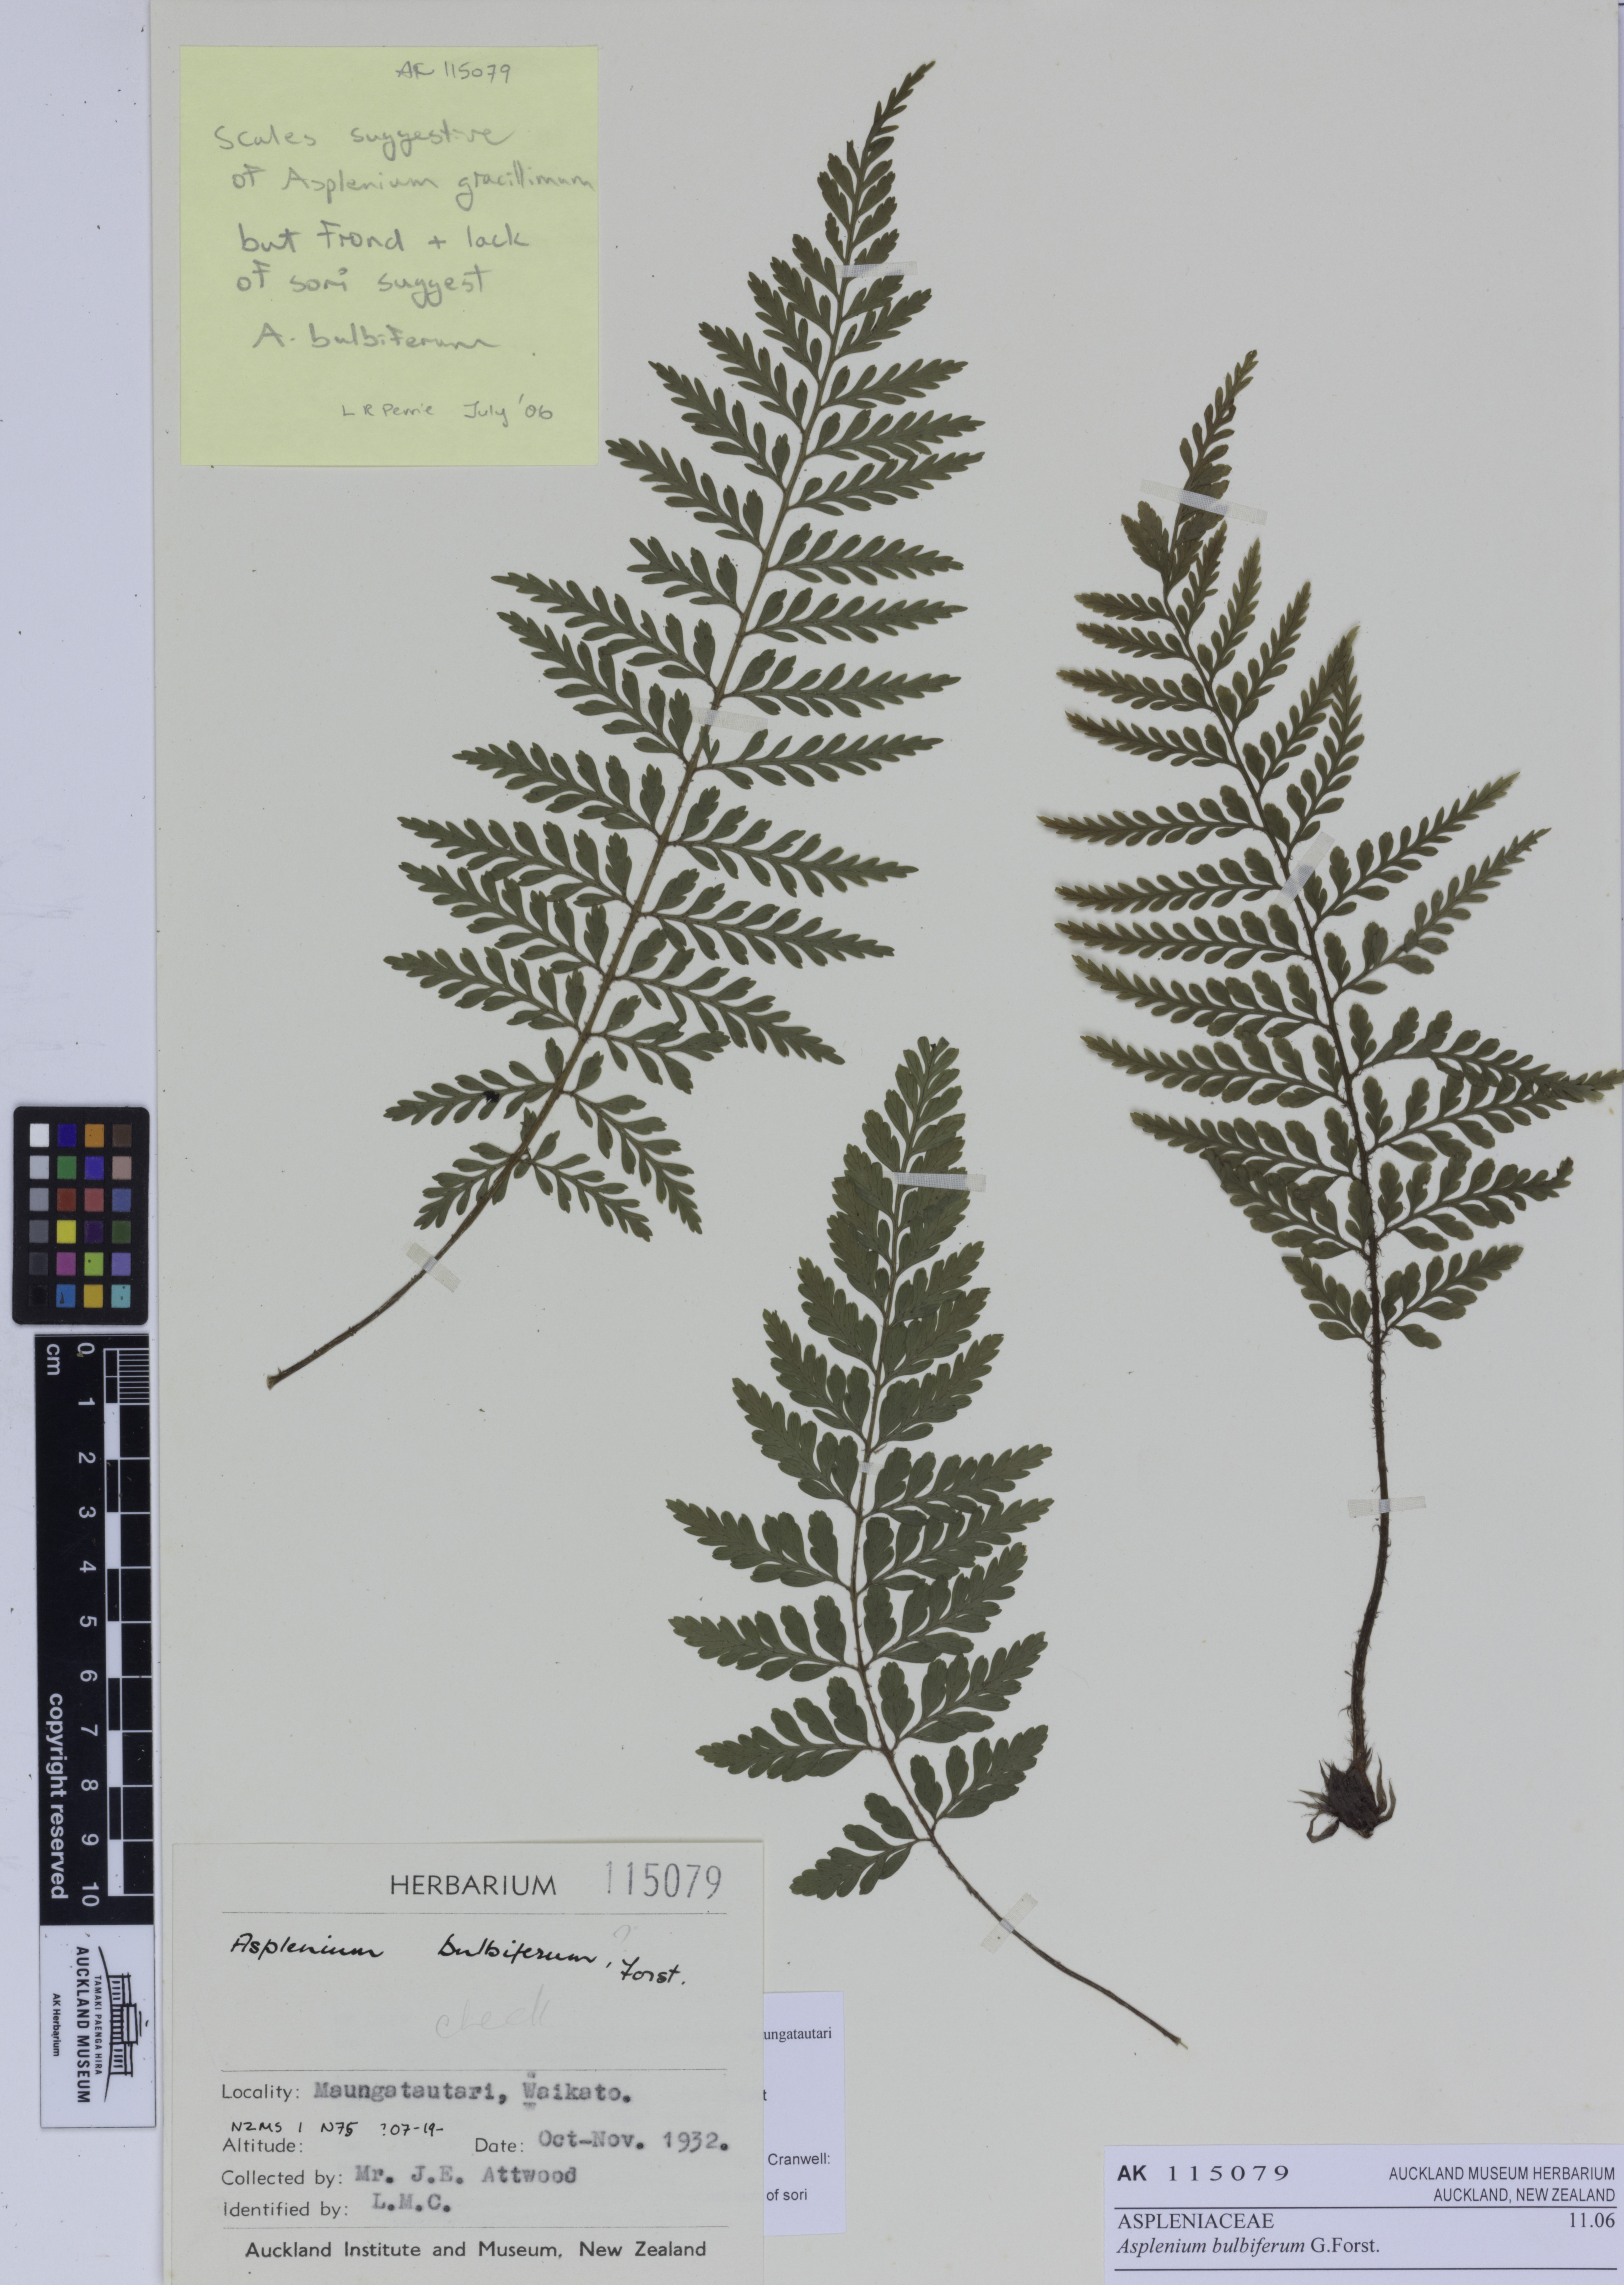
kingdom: Plantae
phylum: Tracheophyta
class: Polypodiopsida
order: Polypodiales
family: Aspleniaceae
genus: Asplenium
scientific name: Asplenium bulbiferum
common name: Mother fern
